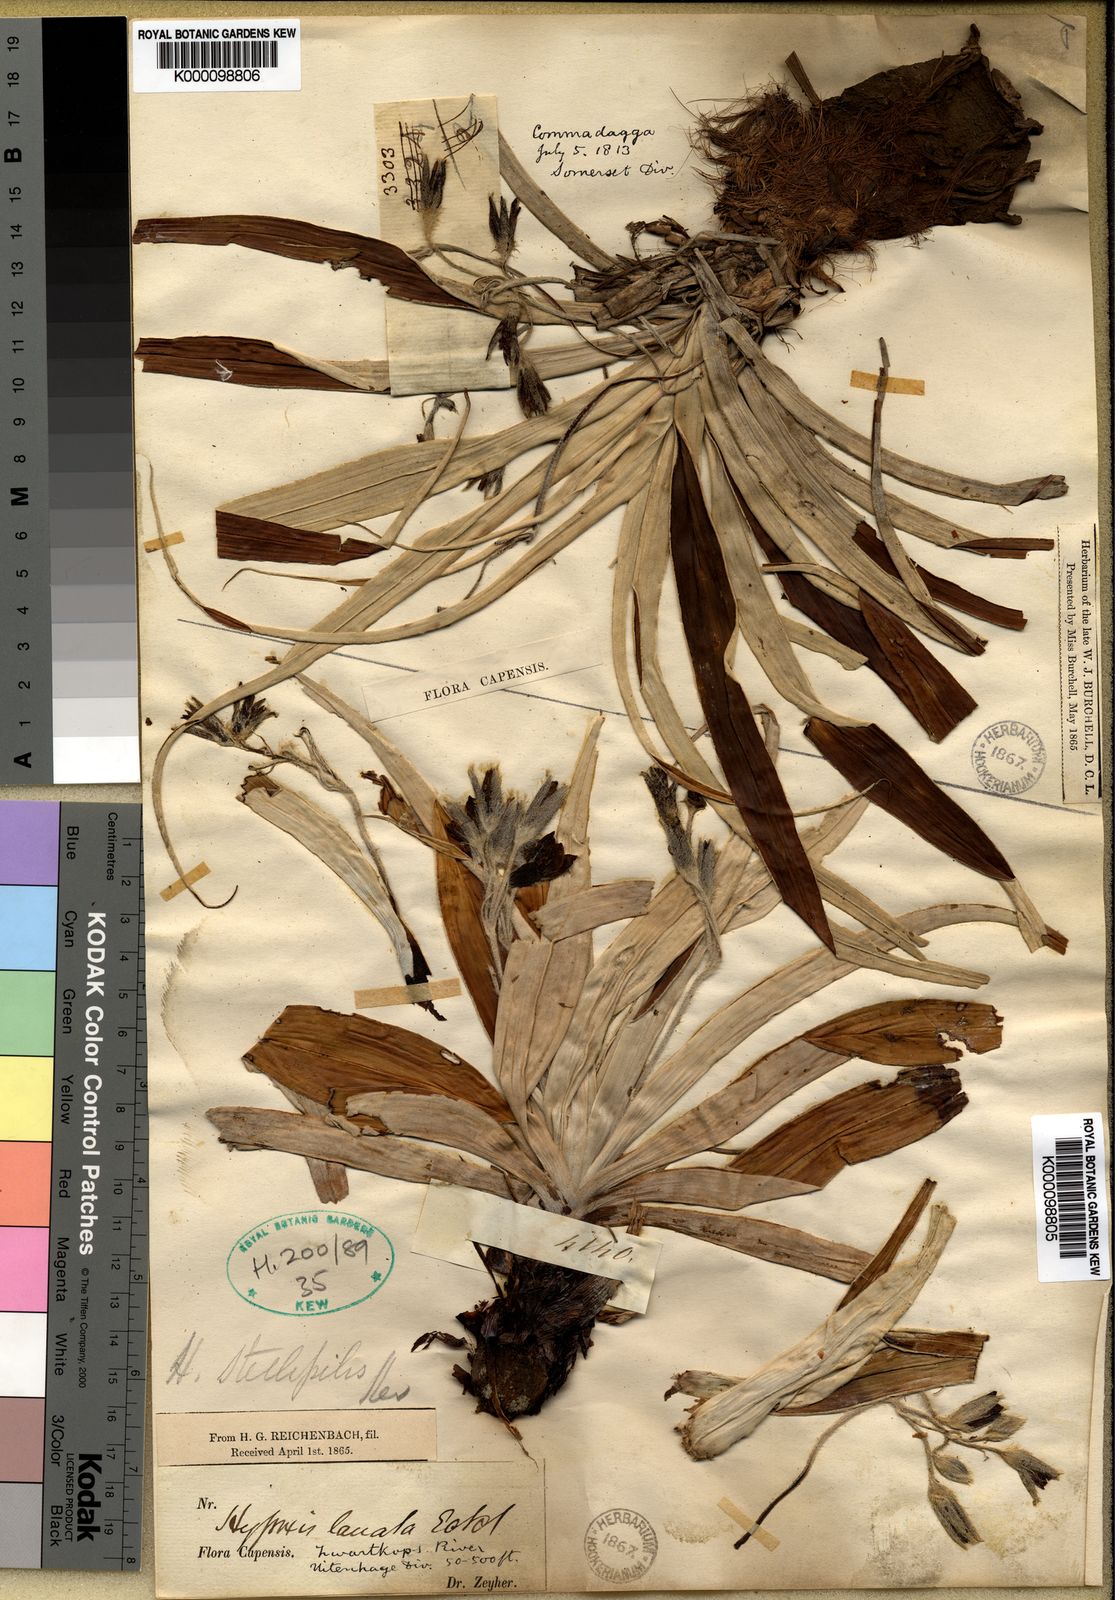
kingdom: Plantae
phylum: Tracheophyta
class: Liliopsida
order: Asparagales
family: Hypoxidaceae
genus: Hypoxis
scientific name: Hypoxis stellipilis
